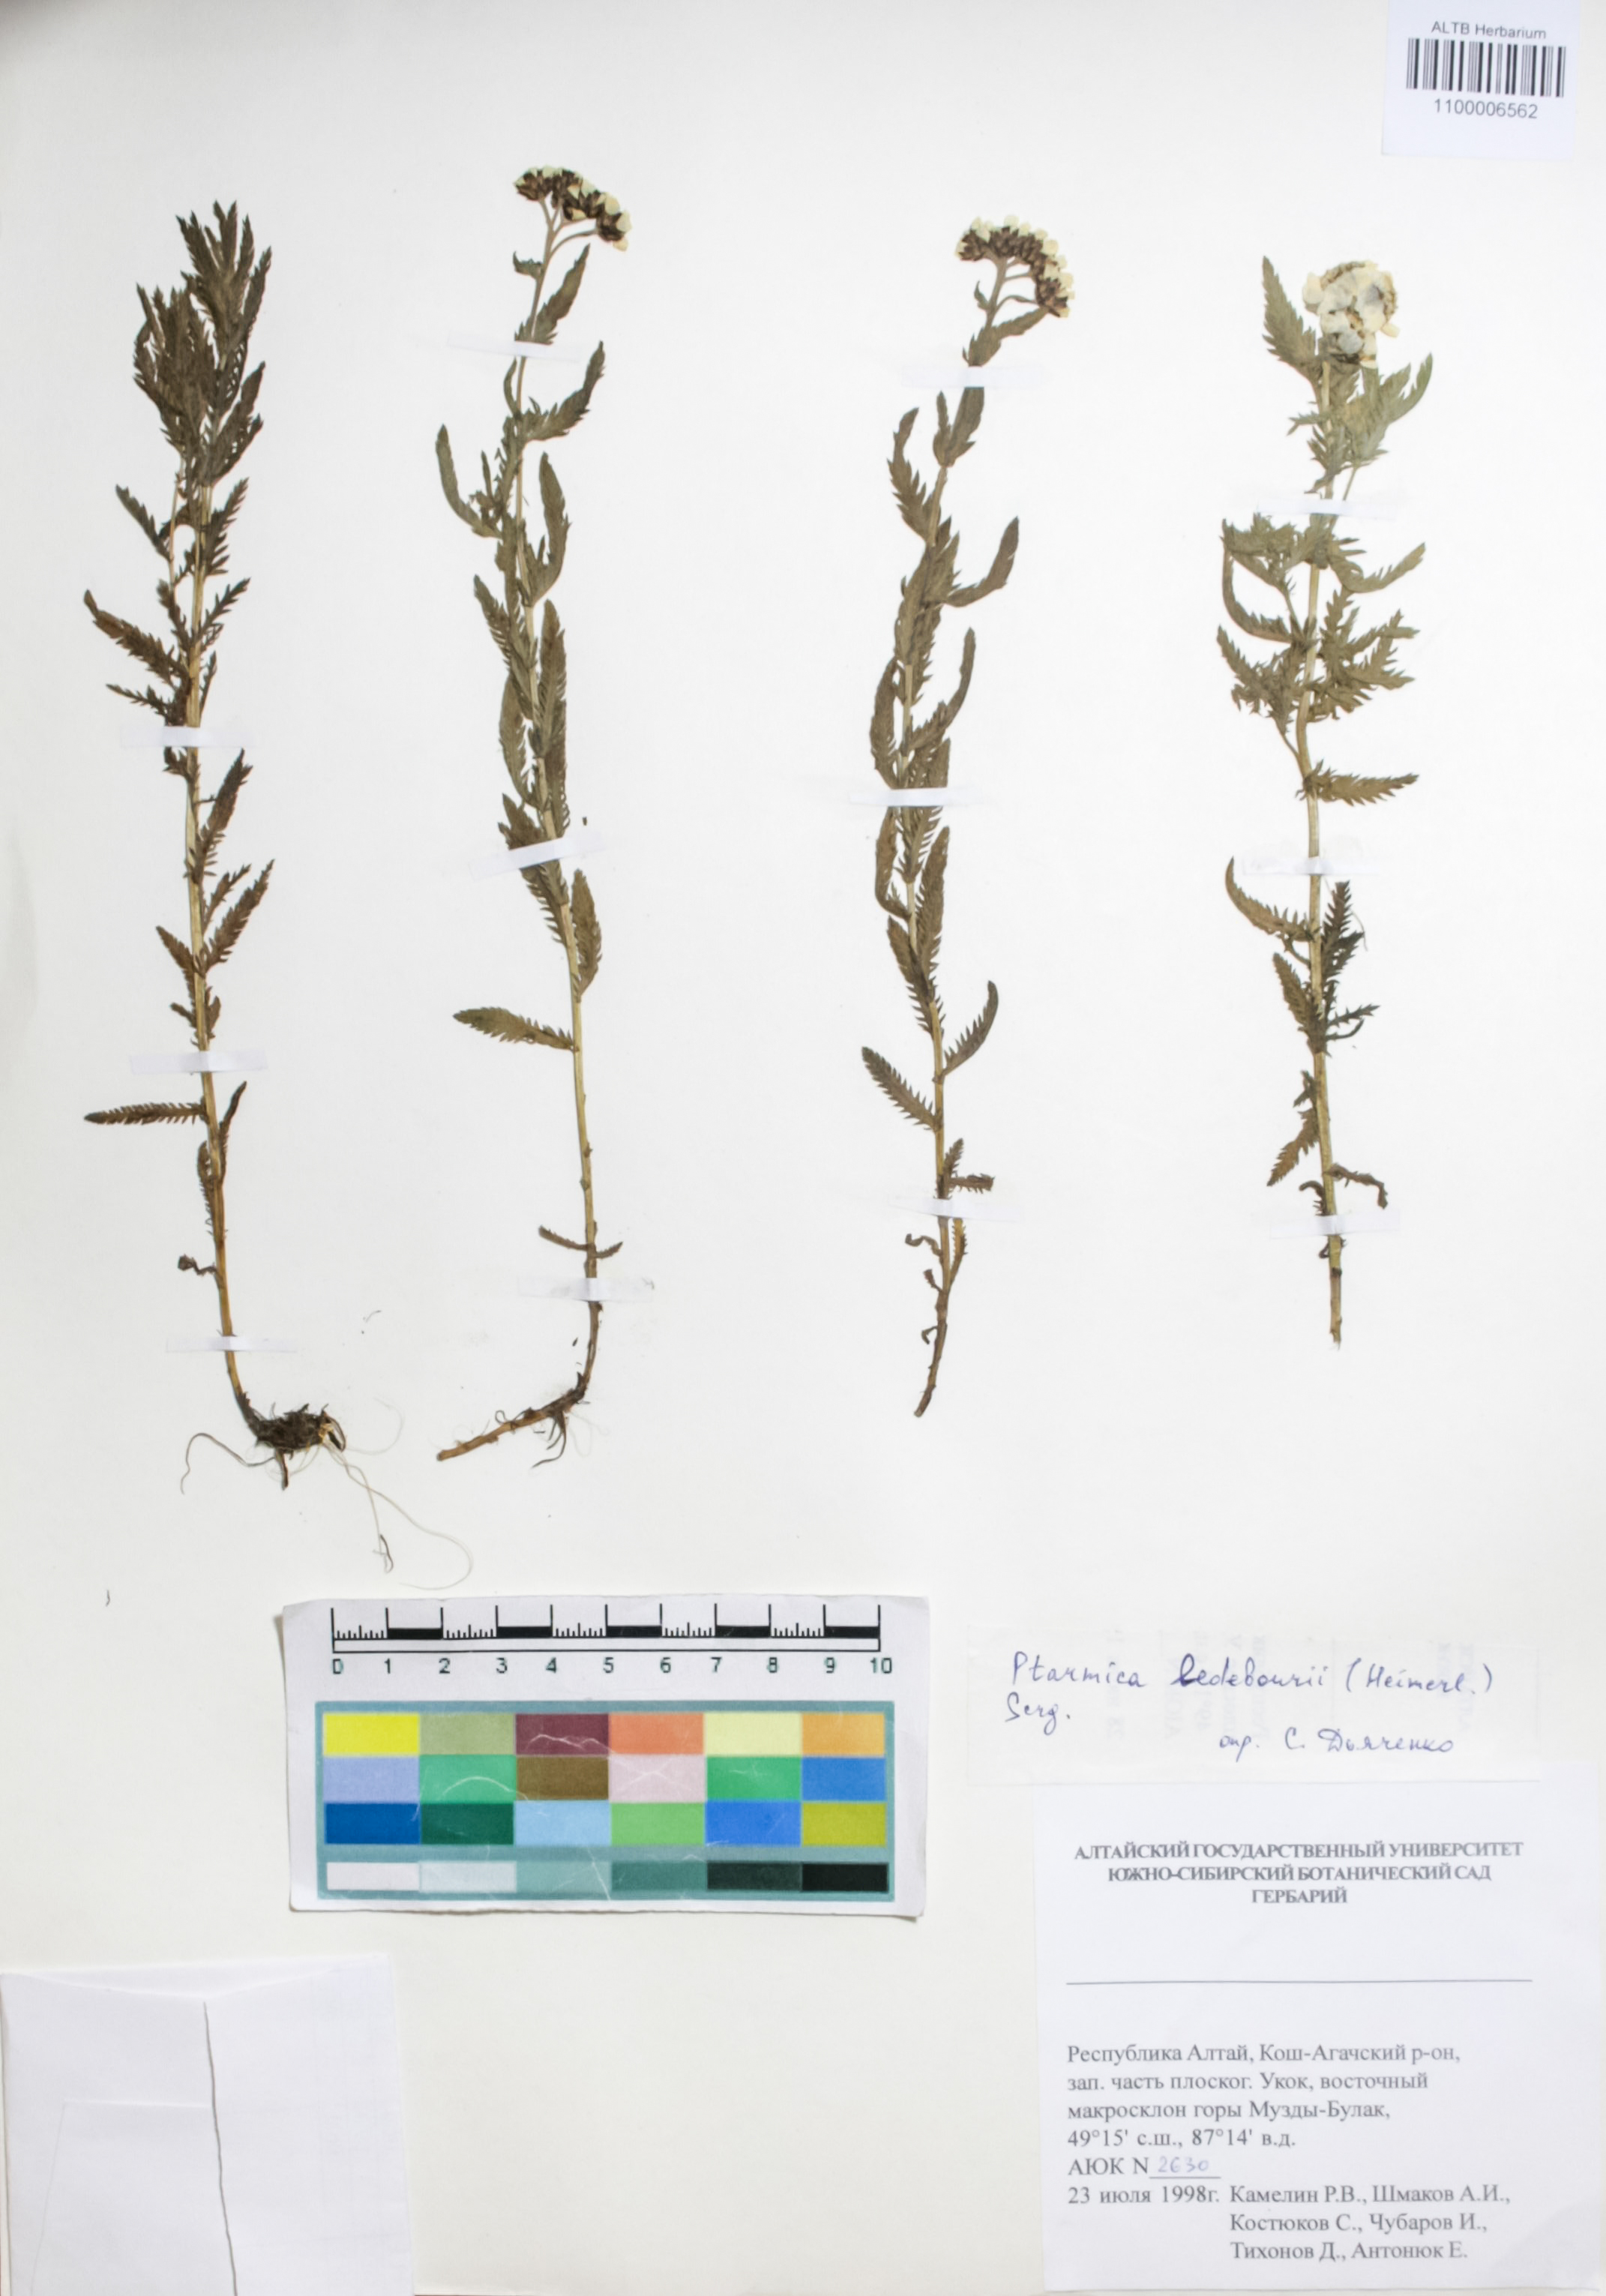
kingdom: Plantae
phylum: Tracheophyta
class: Magnoliopsida
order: Asterales
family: Asteraceae
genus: Achillea
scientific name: Achillea ledebourii
